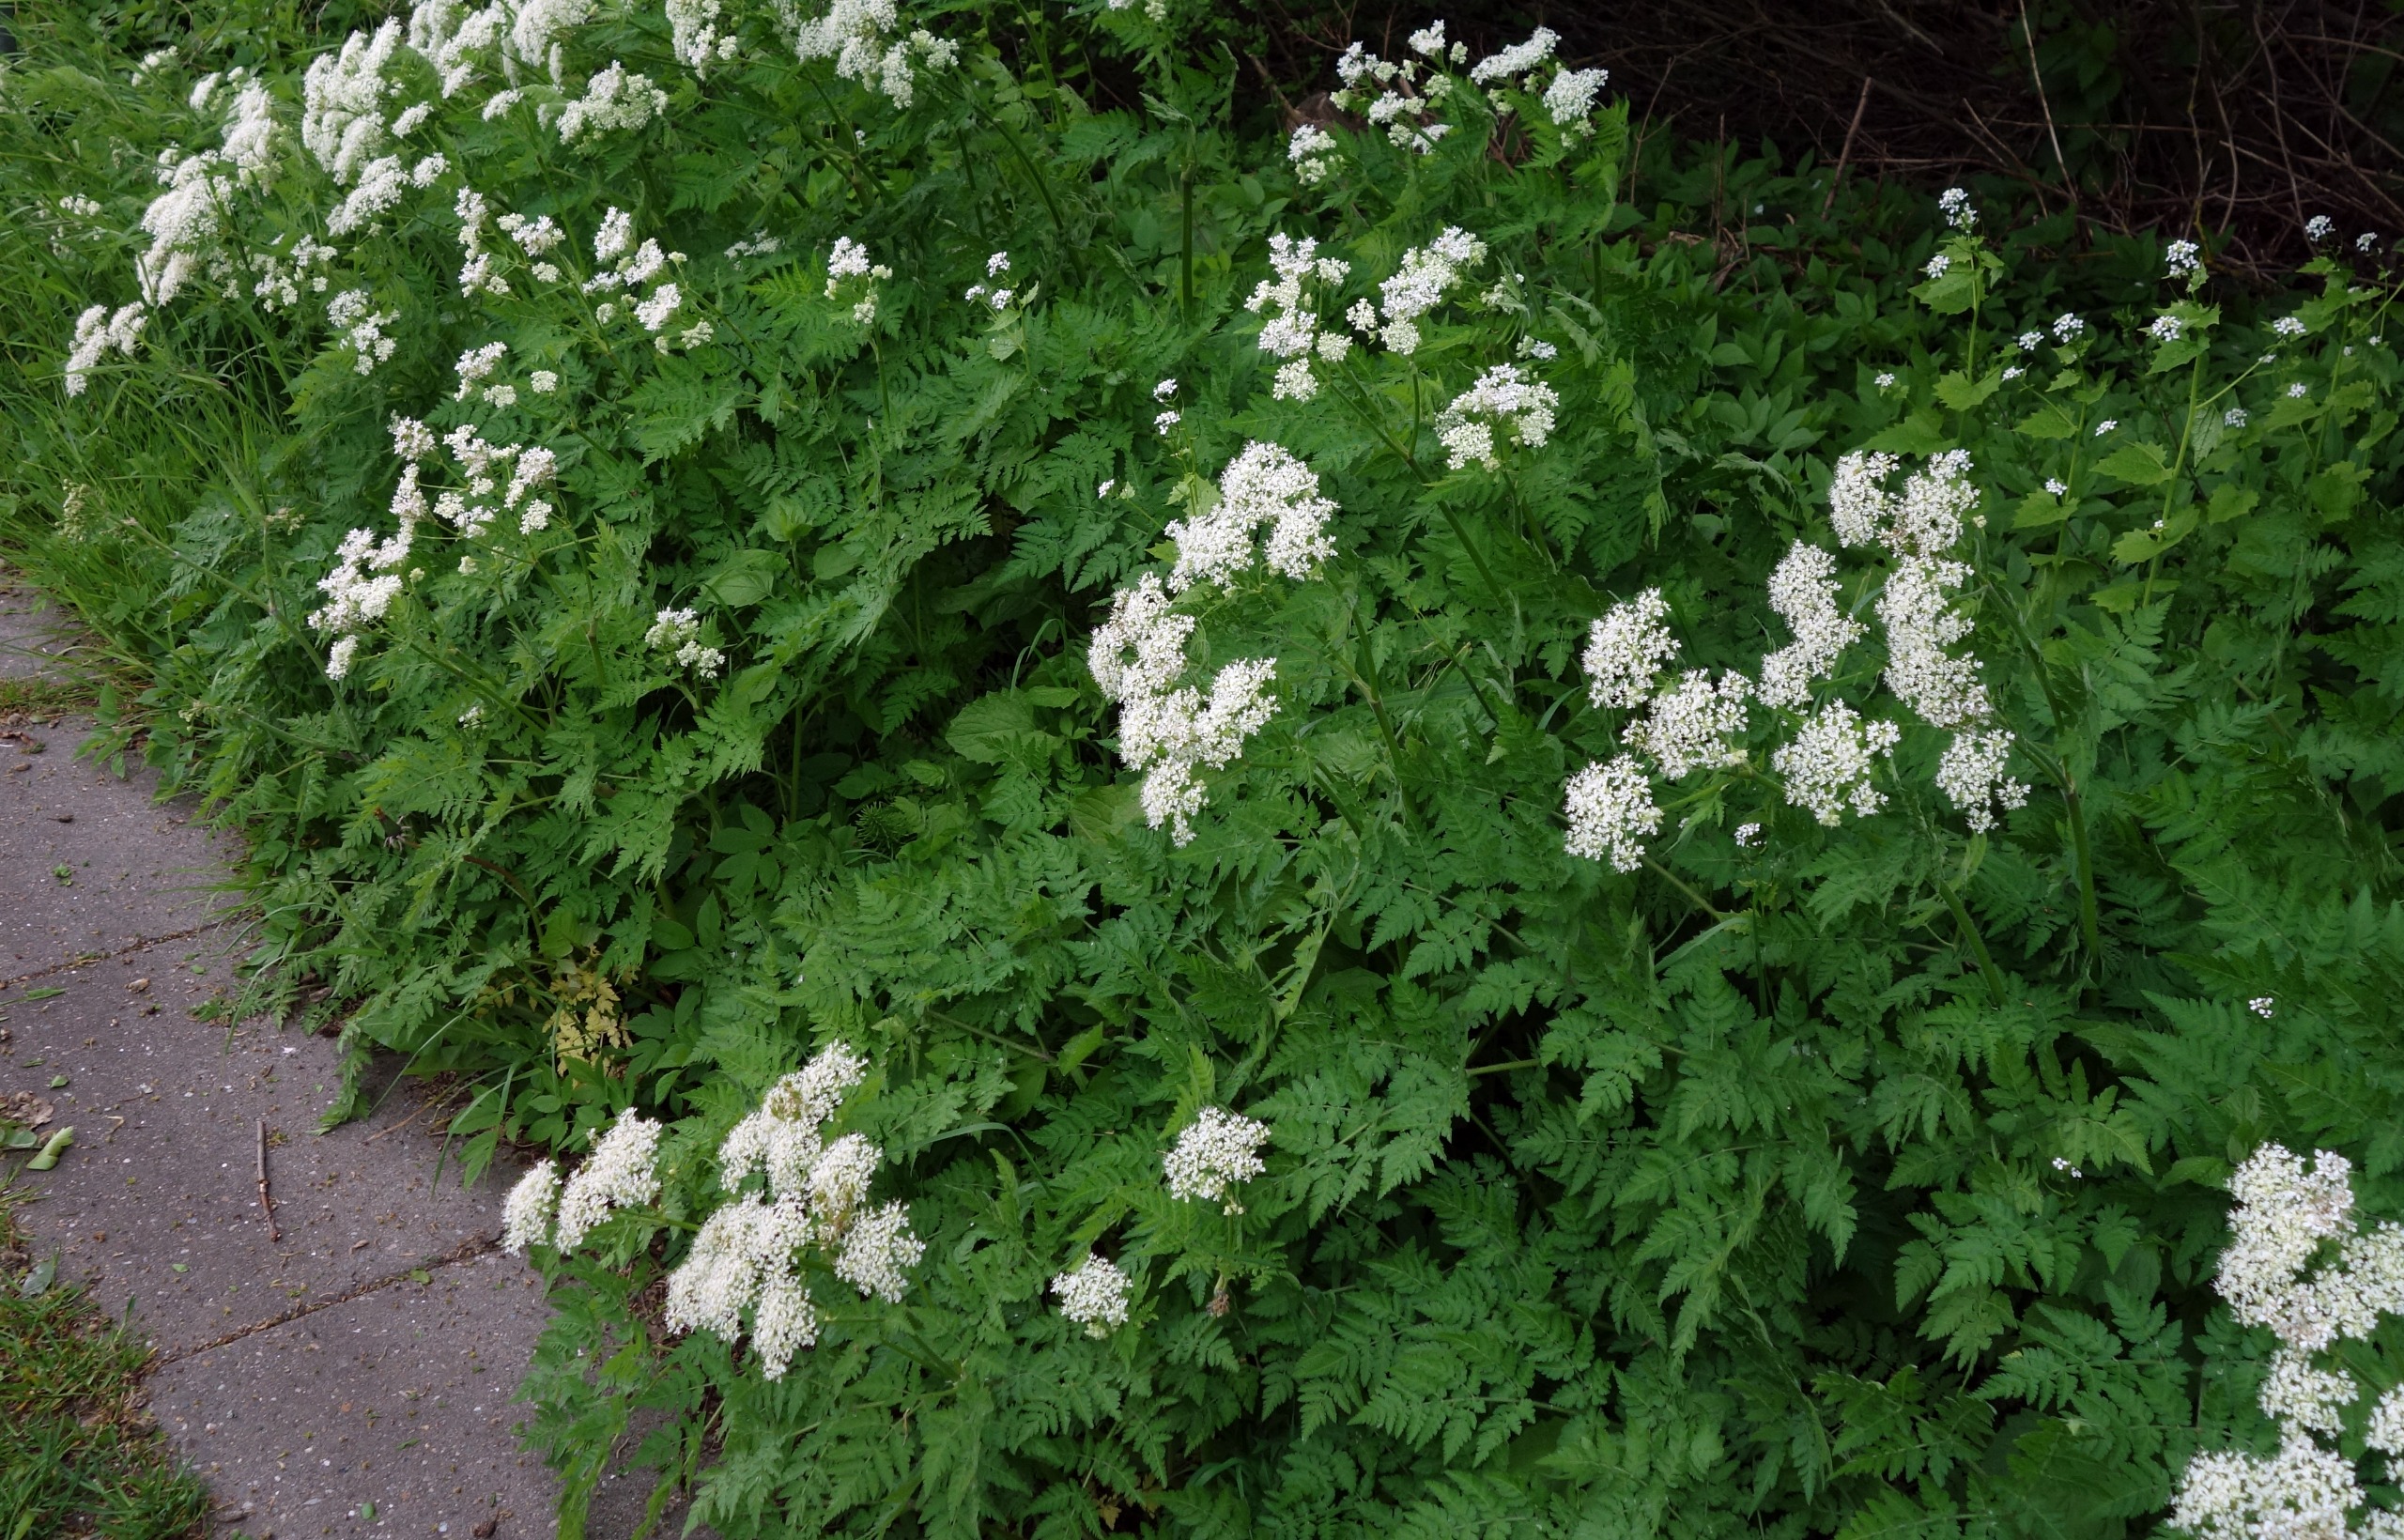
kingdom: Plantae
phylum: Tracheophyta
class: Magnoliopsida
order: Apiales
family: Apiaceae
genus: Myrrhis
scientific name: Myrrhis odorata
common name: Sødskærm
